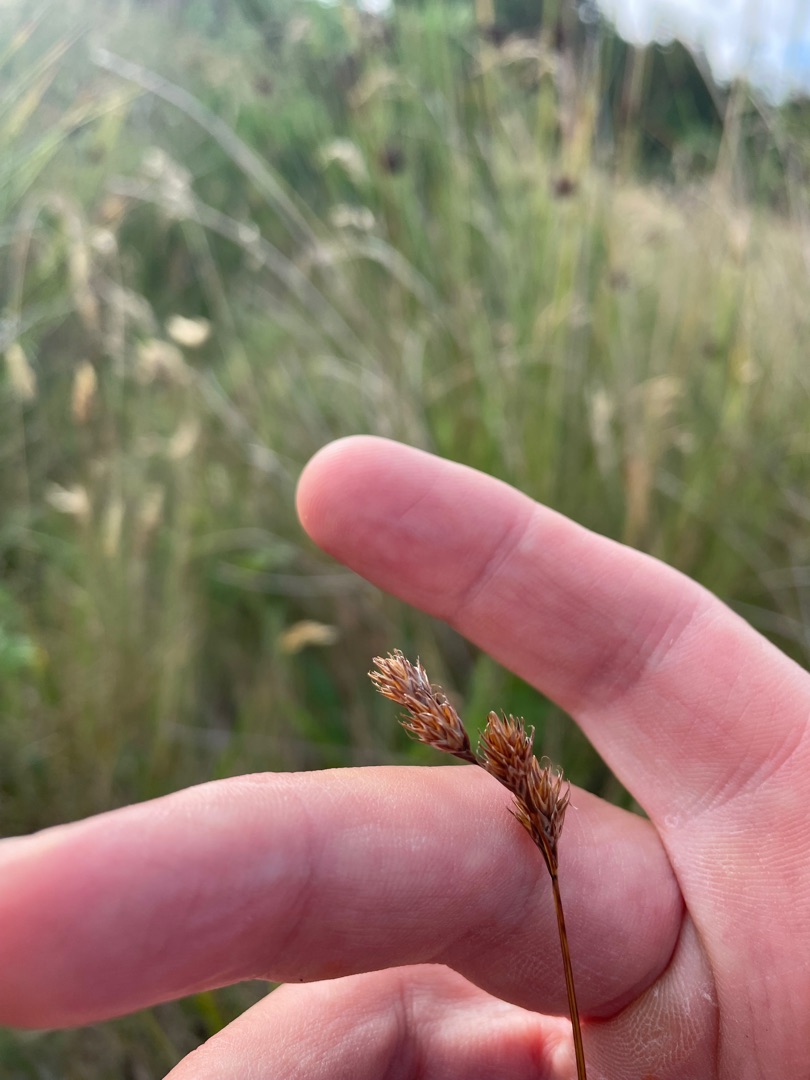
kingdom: Plantae
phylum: Tracheophyta
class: Liliopsida
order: Poales
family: Cyperaceae
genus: Carex
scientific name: Carex leporina
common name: Hare-star
